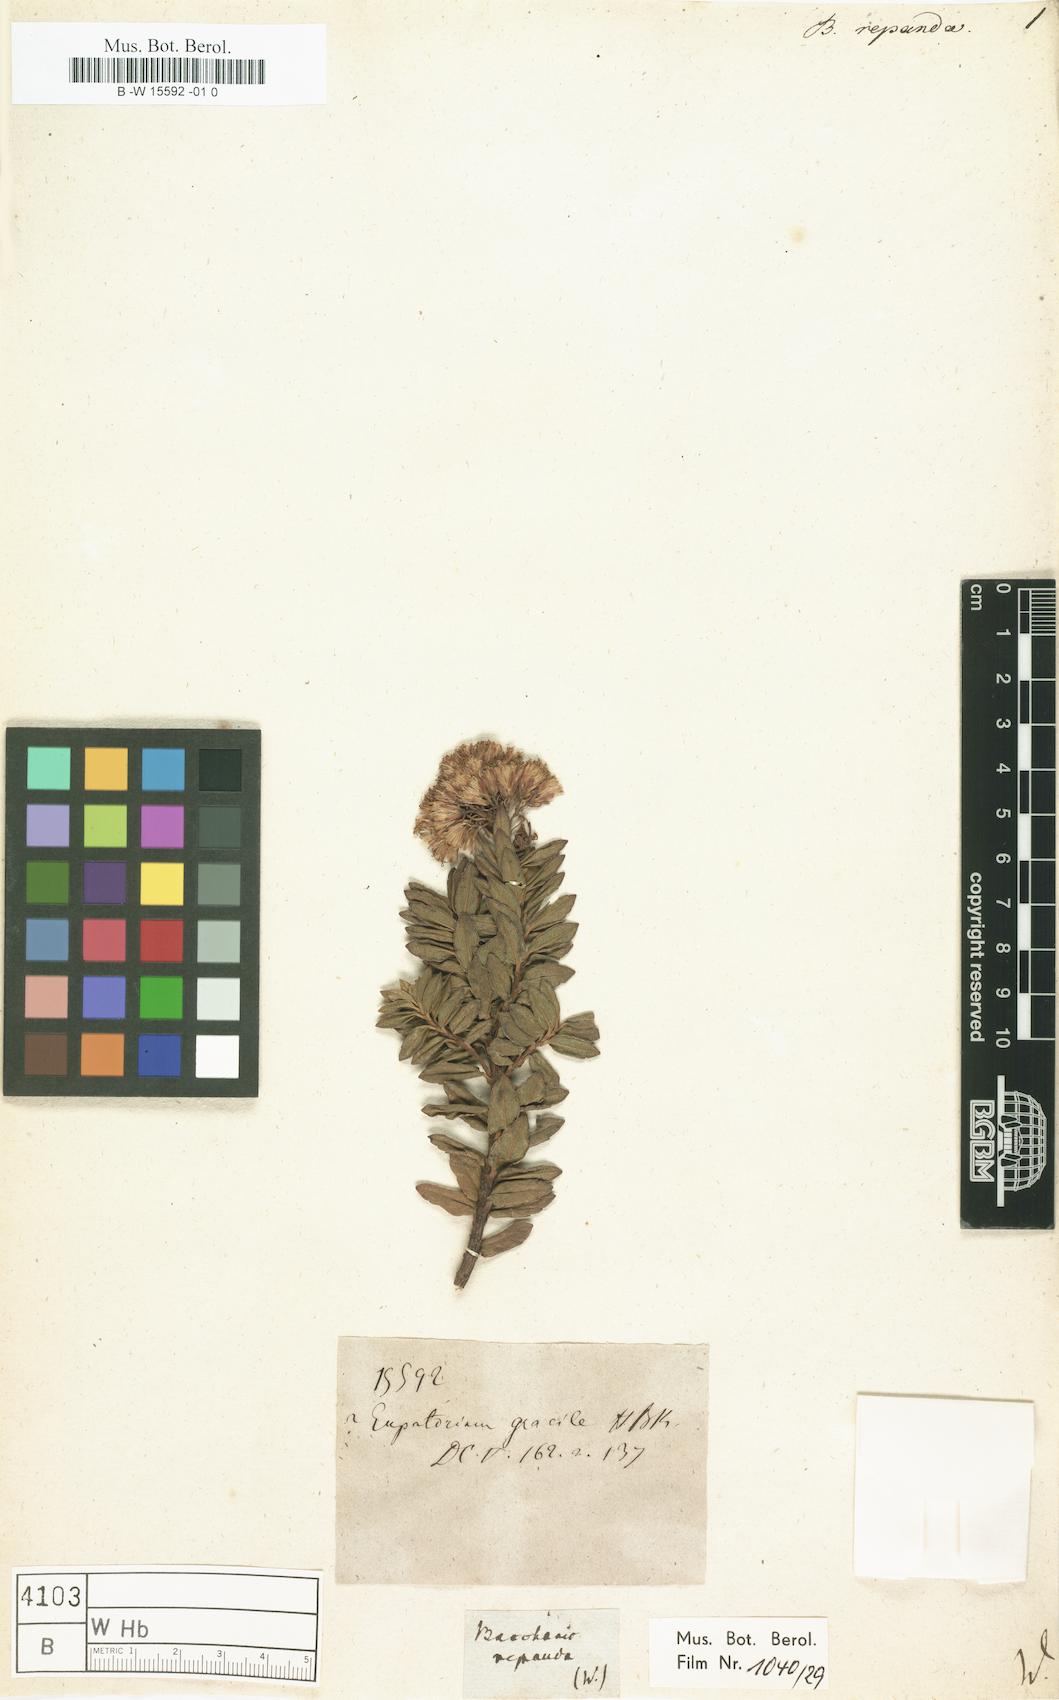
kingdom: Plantae
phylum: Tracheophyta
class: Magnoliopsida
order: Asterales
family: Asteraceae
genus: Baccharis
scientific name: Baccharis
